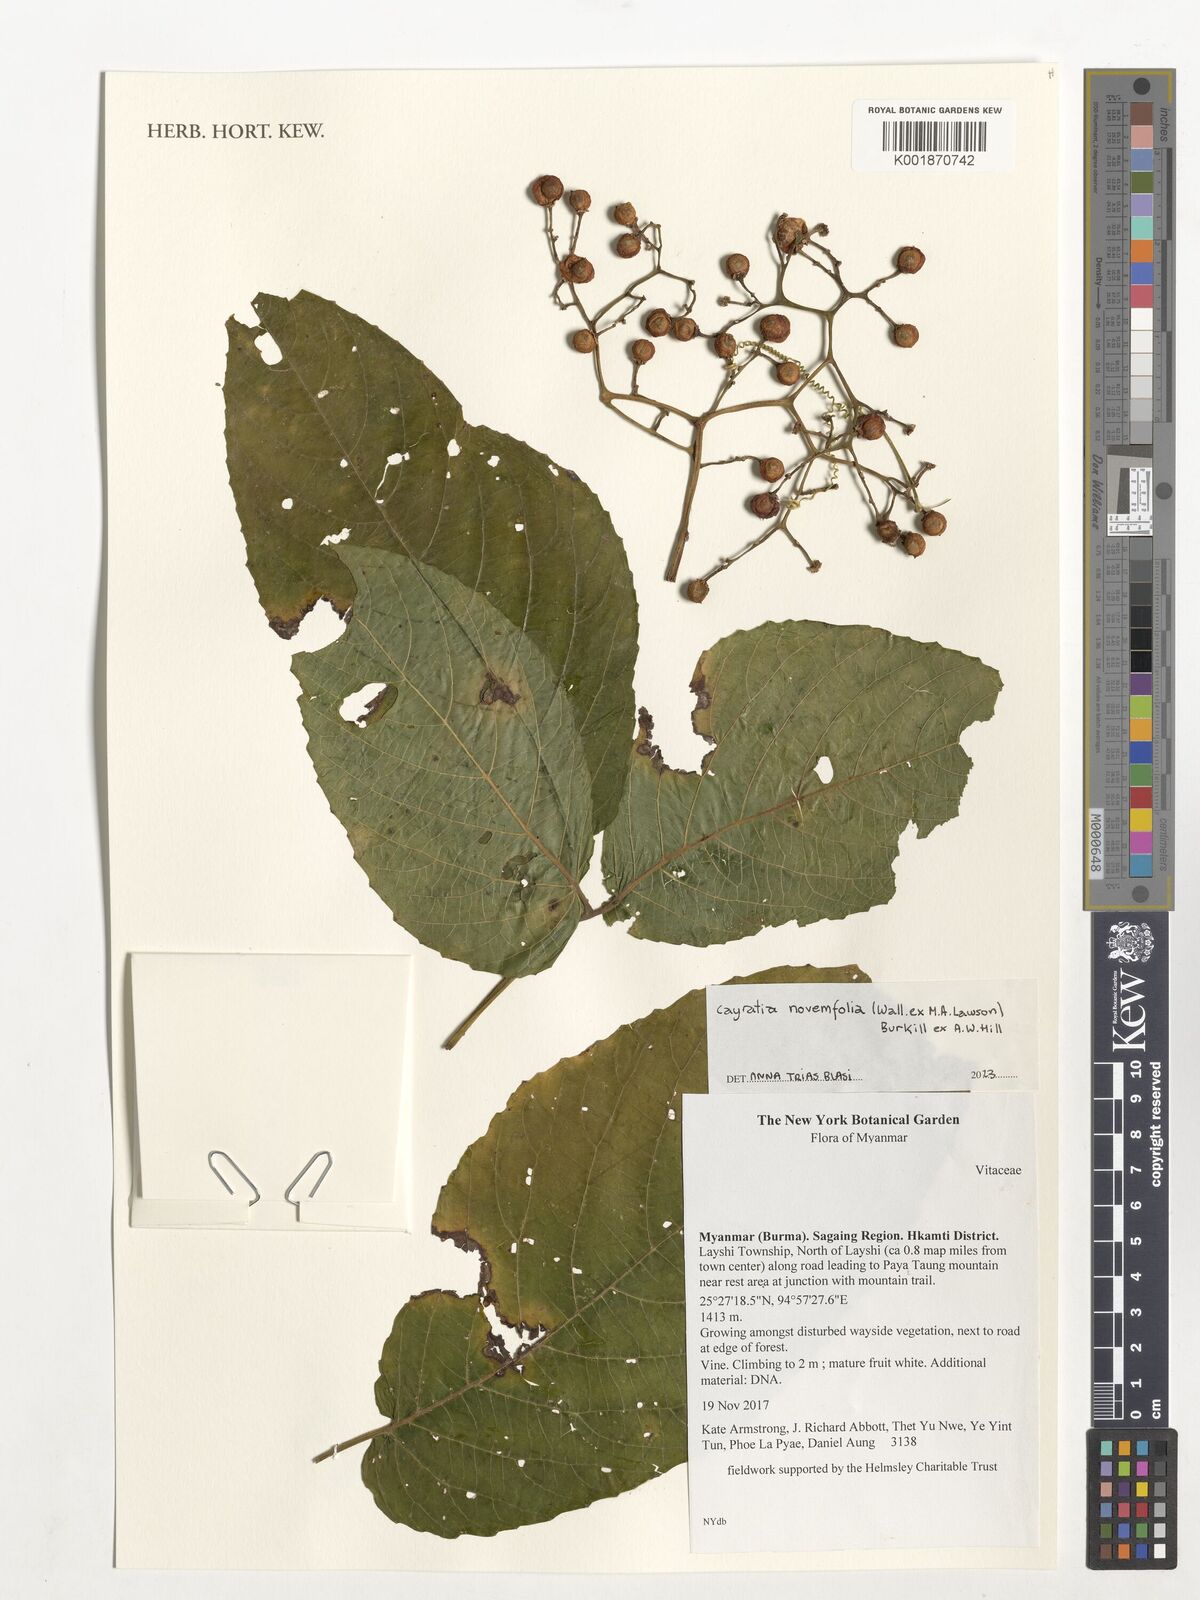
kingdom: Plantae
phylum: Tracheophyta
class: Magnoliopsida
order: Vitales
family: Vitaceae
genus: Cayratia
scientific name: Cayratia novemfolia
